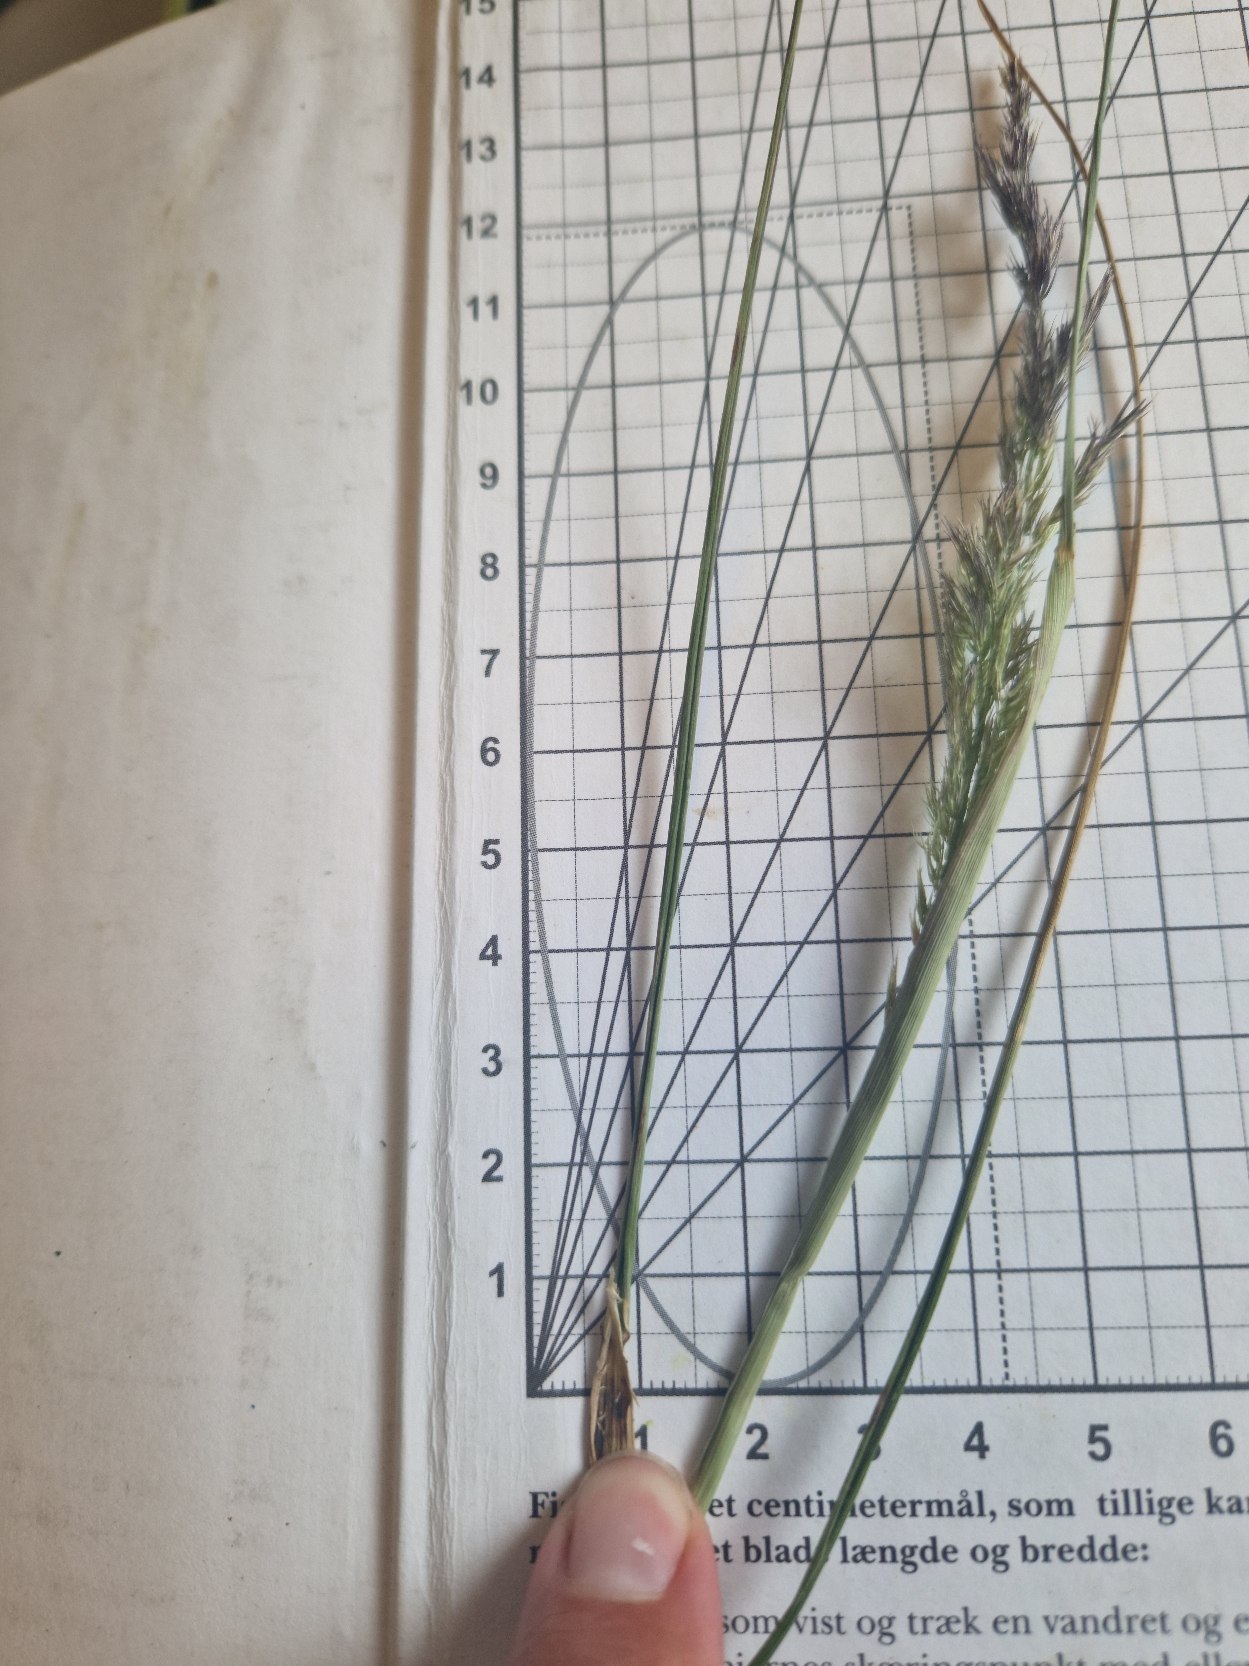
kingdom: Plantae
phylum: Tracheophyta
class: Liliopsida
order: Poales
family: Poaceae
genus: Calamagrostis
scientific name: Calamagrostis epigejos
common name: Bjerg-rørhvene
